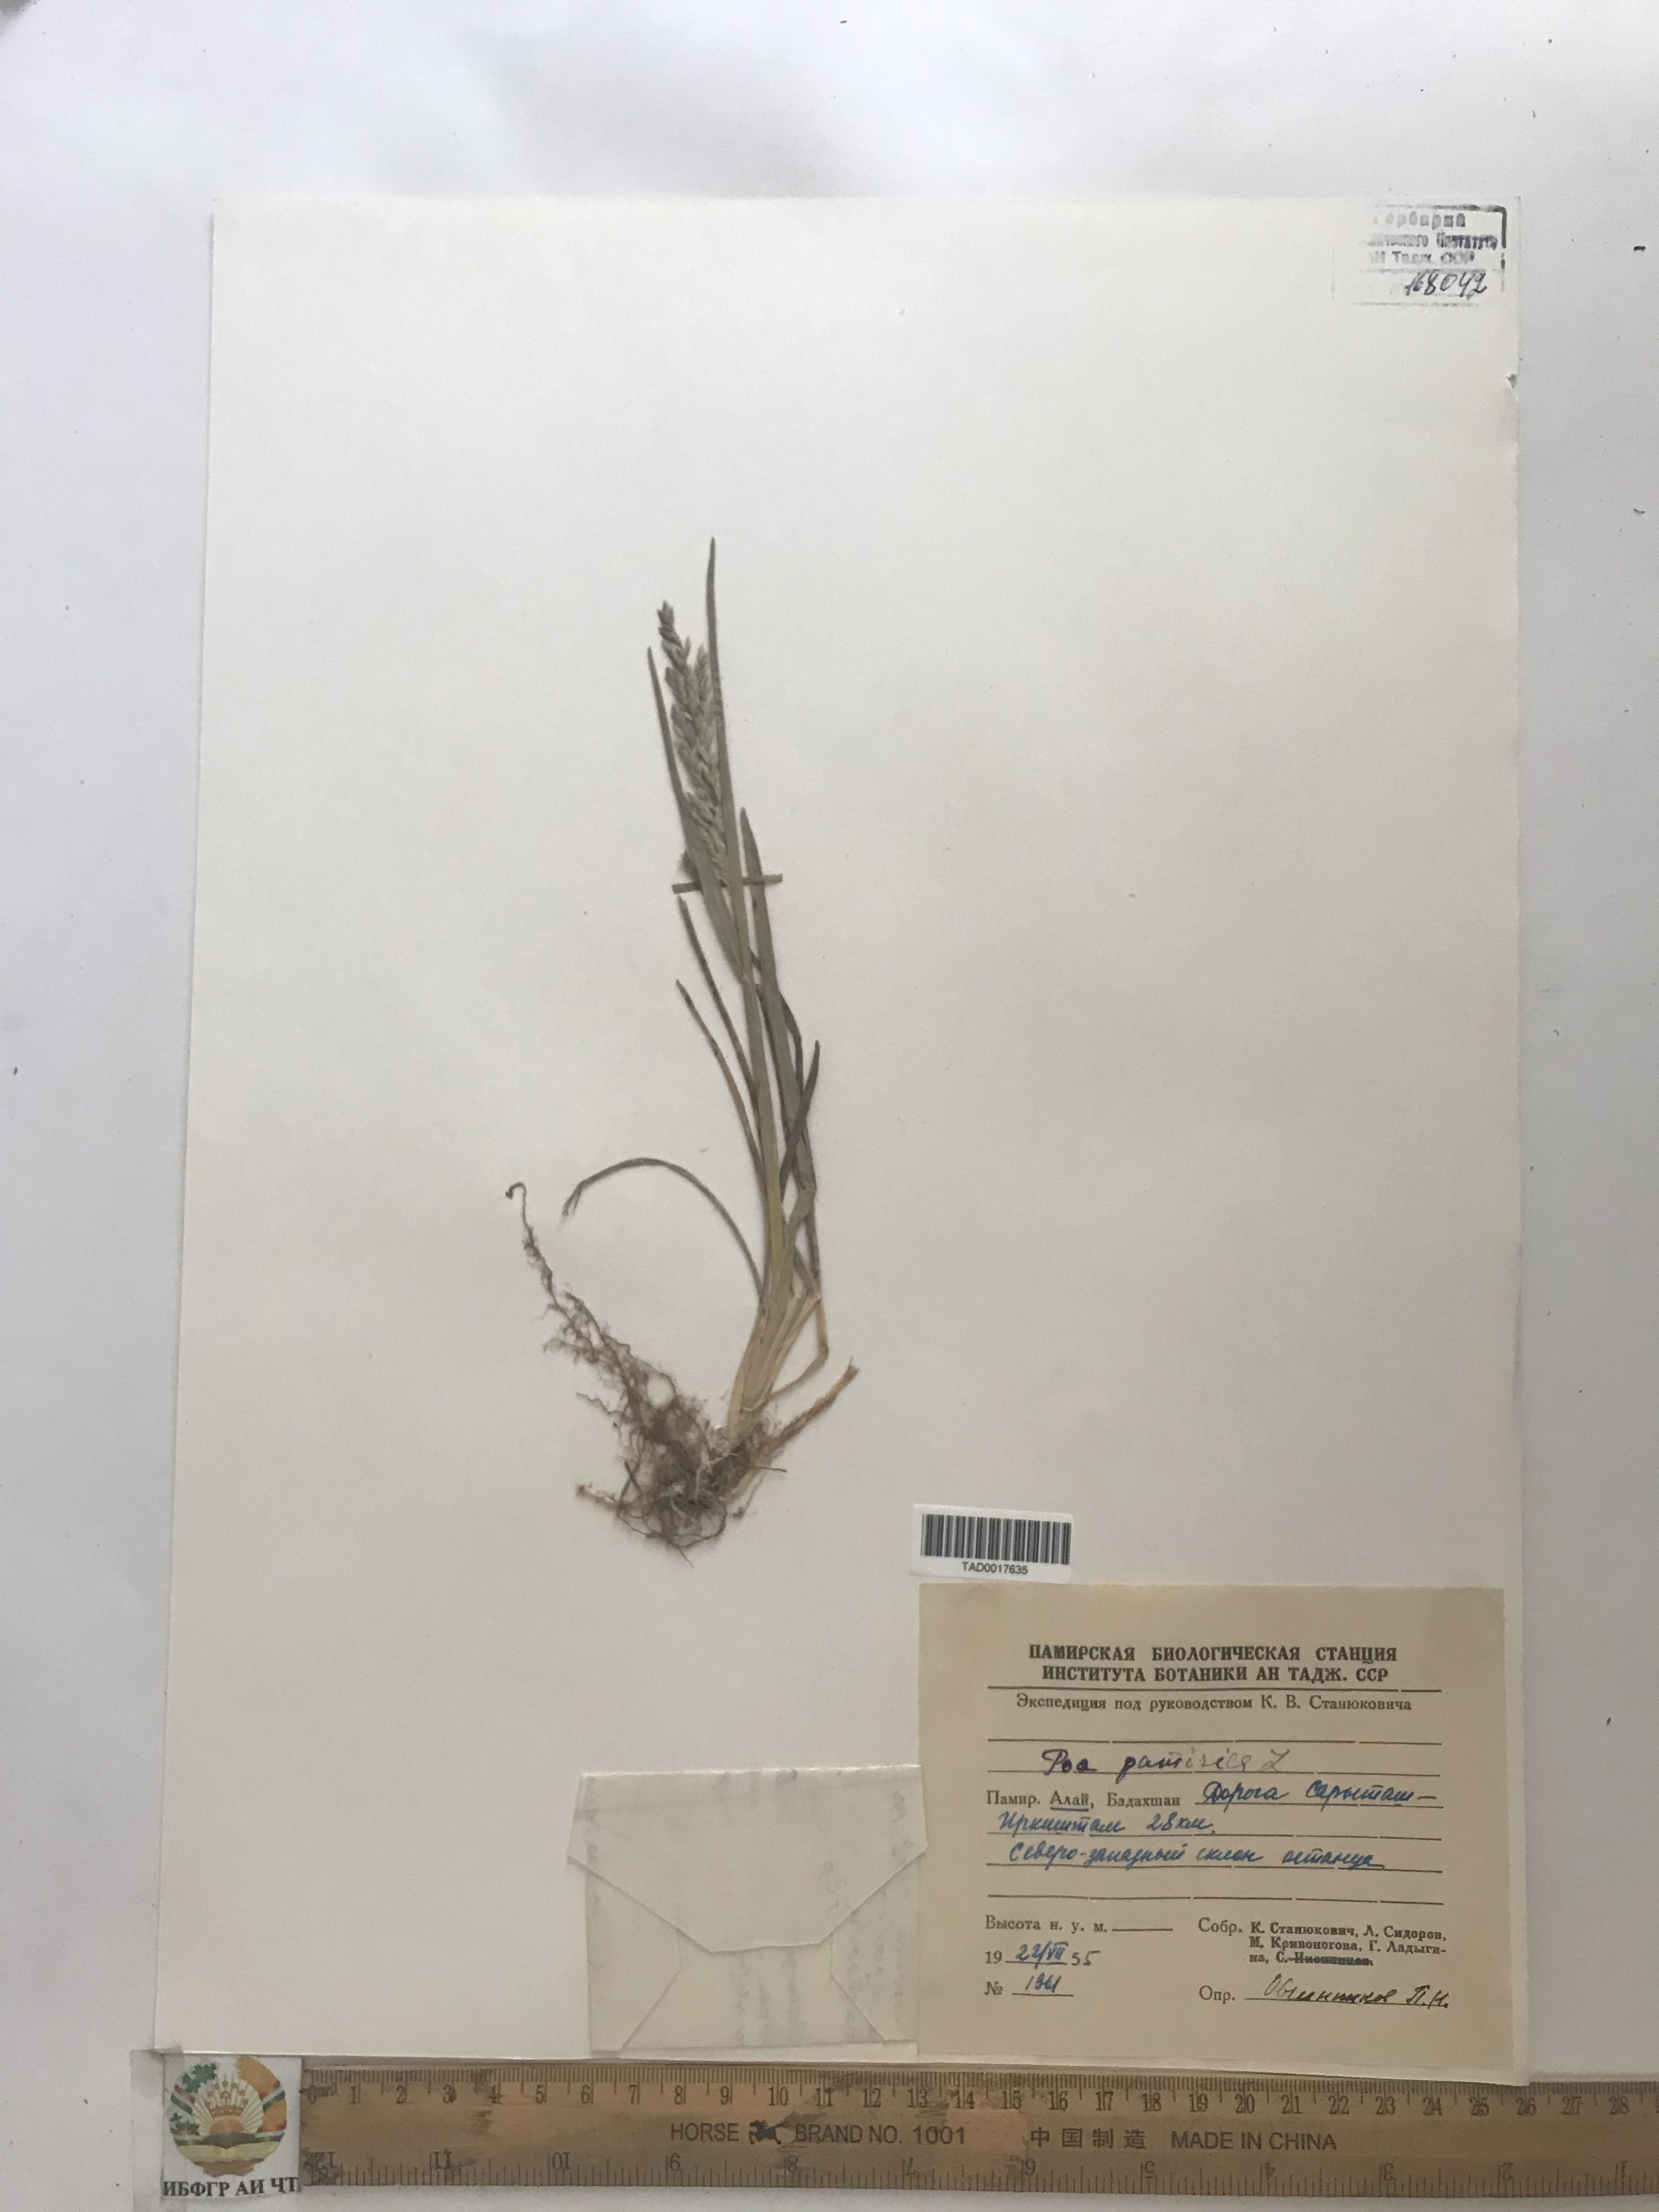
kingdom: Plantae
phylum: Tracheophyta
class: Liliopsida
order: Poales
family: Poaceae
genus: Poa
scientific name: Poa tianschanica
